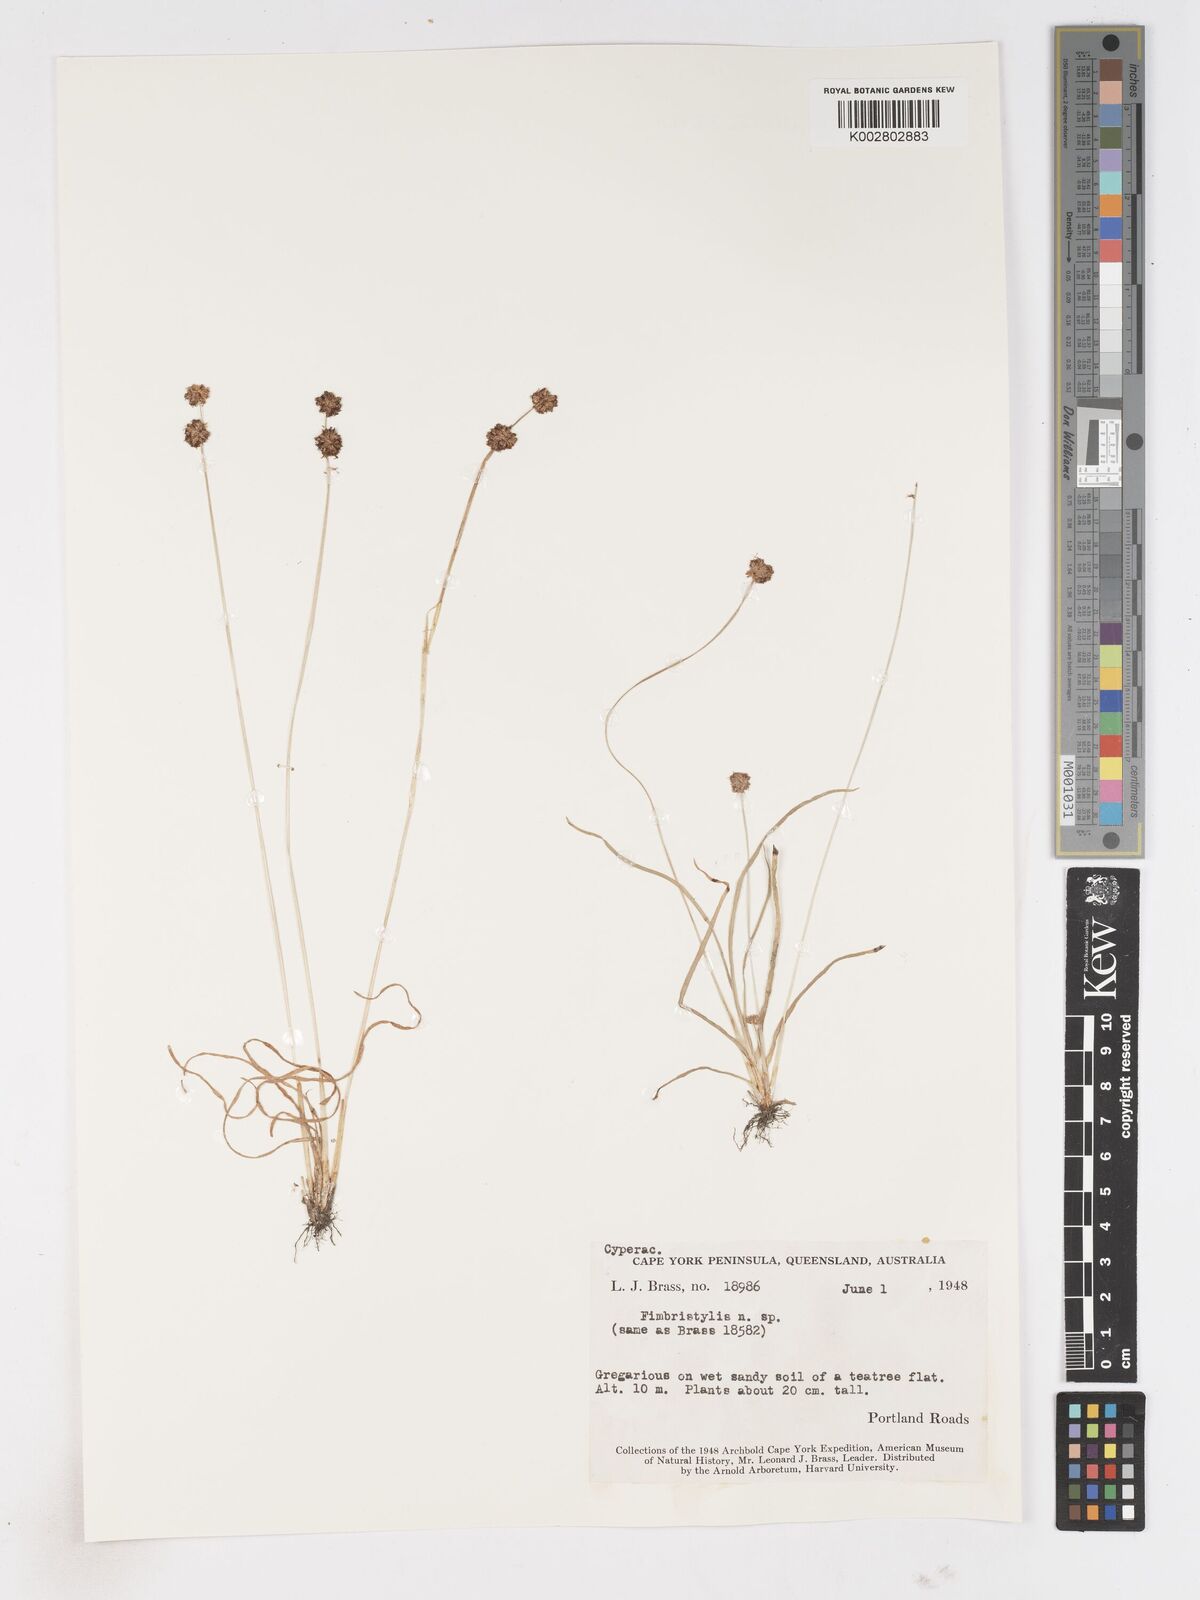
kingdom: Plantae
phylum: Tracheophyta
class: Liliopsida
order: Poales
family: Cyperaceae
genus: Fimbristylis
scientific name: Fimbristylis
